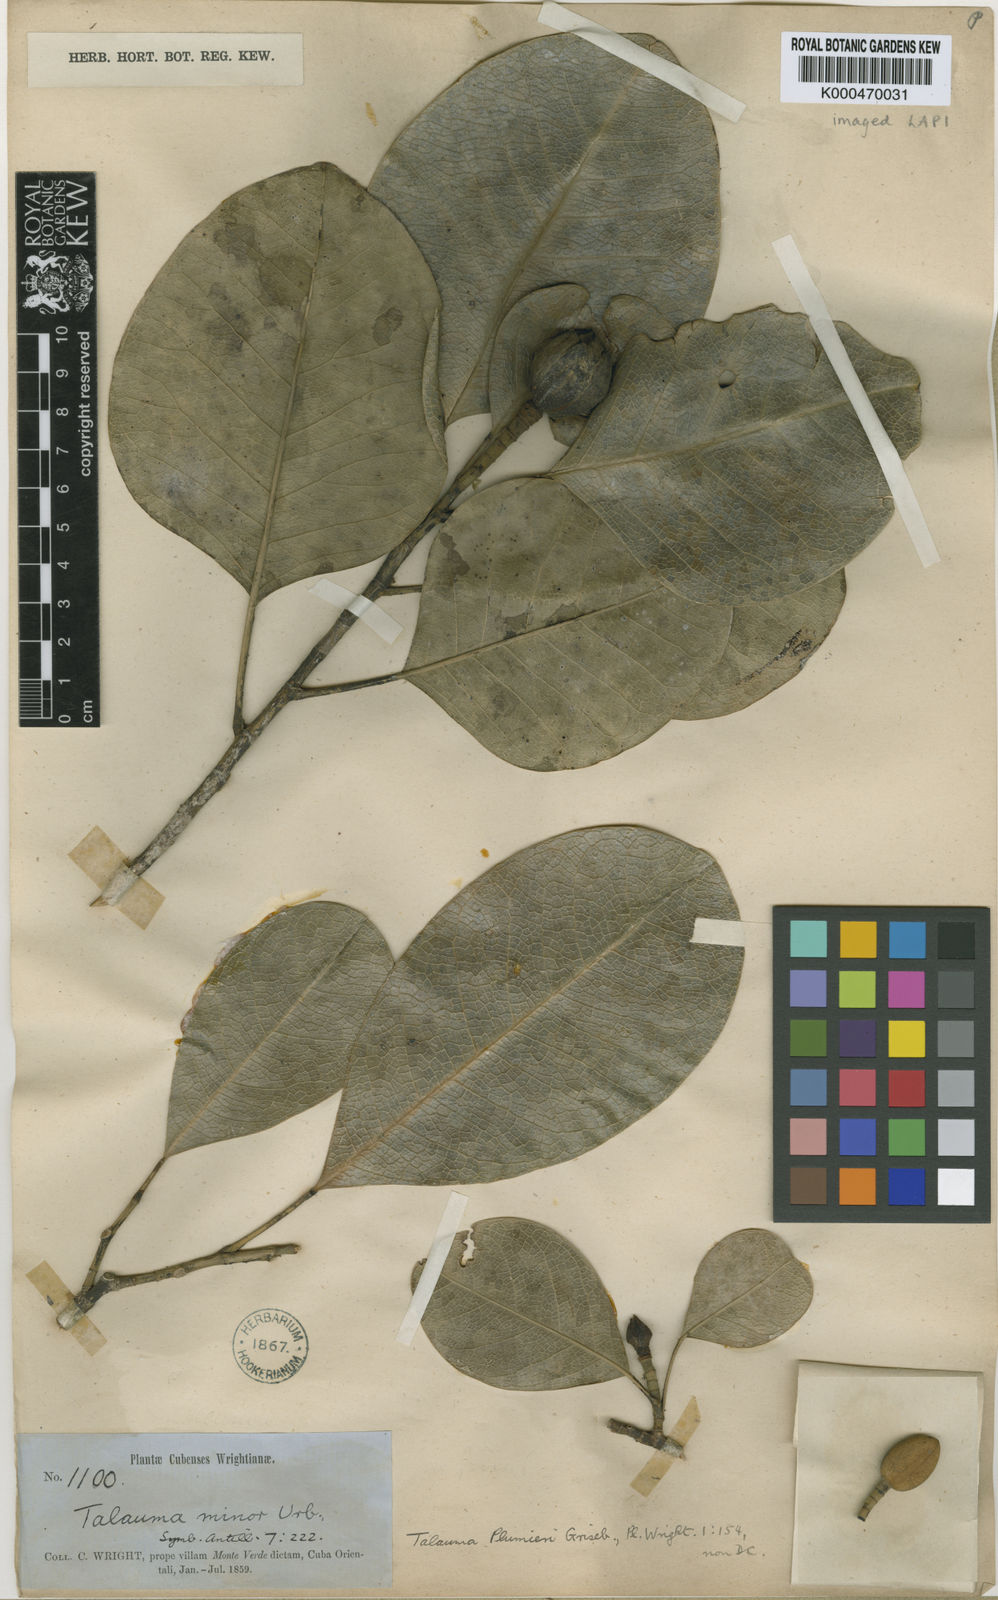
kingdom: Plantae
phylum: Tracheophyta
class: Magnoliopsida
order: Magnoliales
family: Magnoliaceae
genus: Magnolia
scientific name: Magnolia minor
